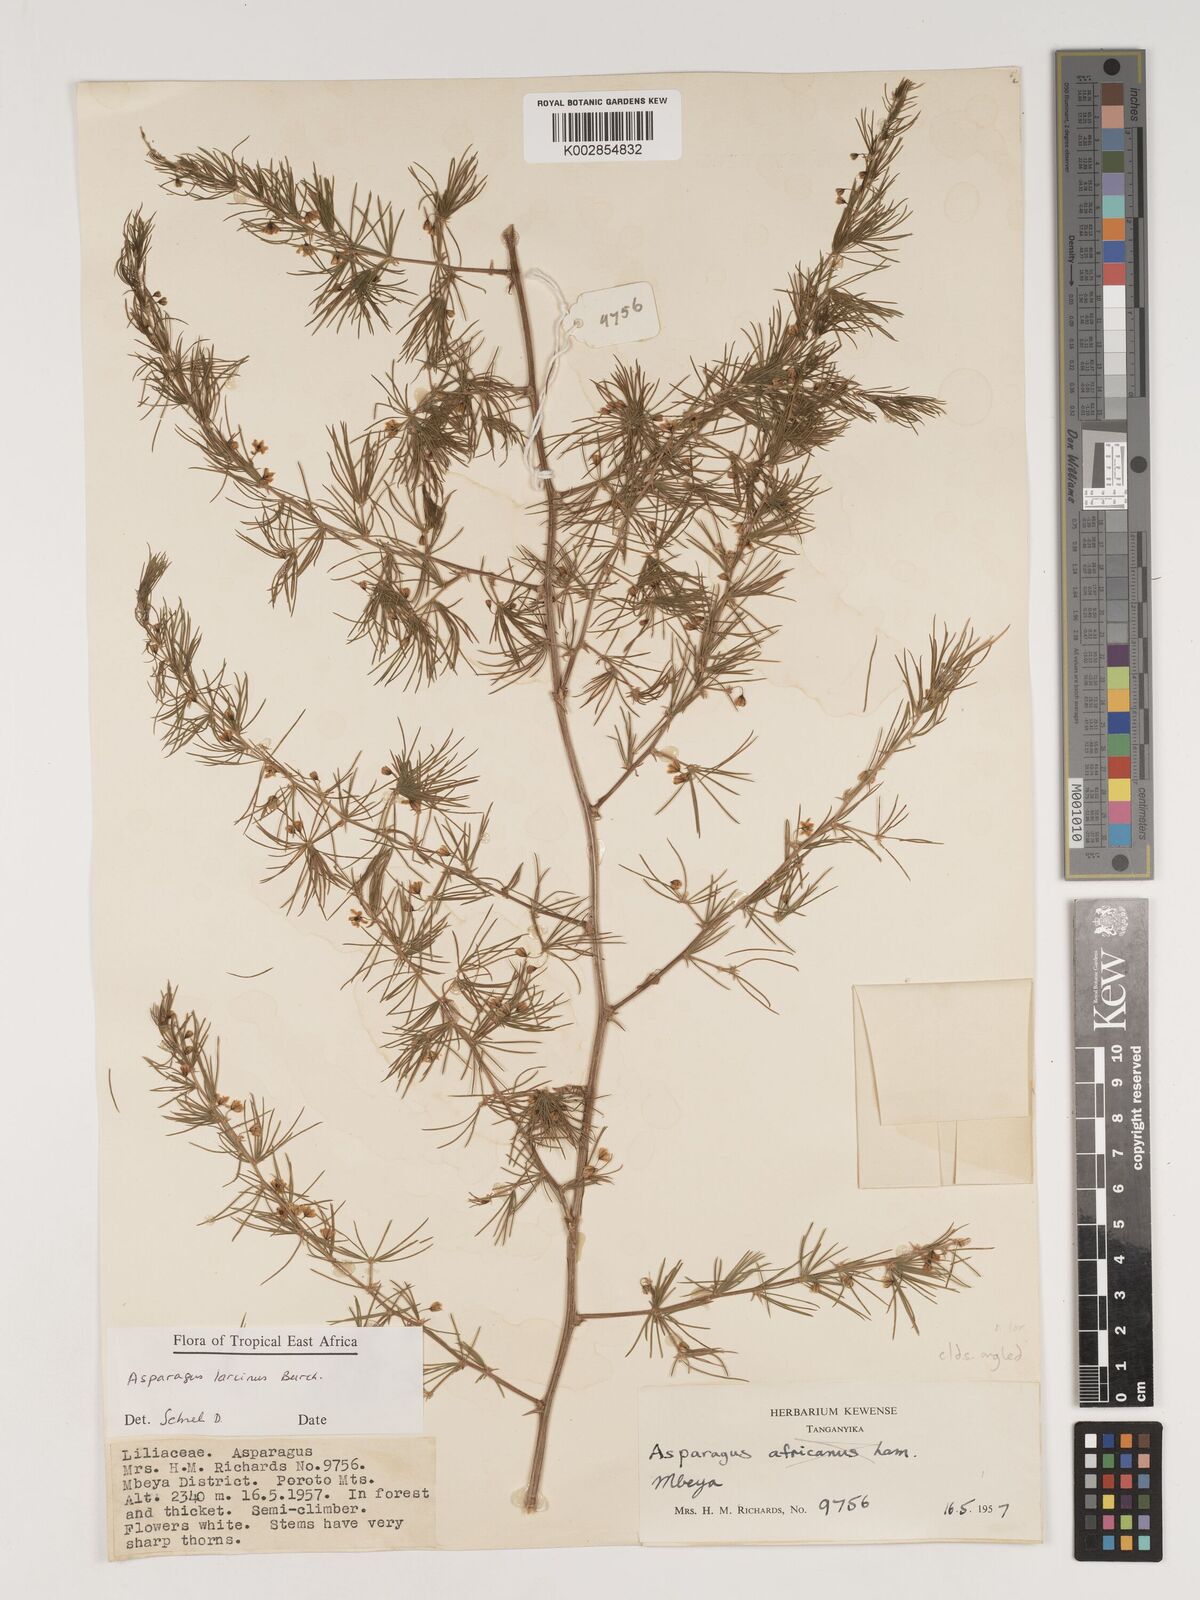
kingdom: Plantae
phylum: Tracheophyta
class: Liliopsida
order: Asparagales
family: Asparagaceae
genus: Asparagus
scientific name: Asparagus laricinus
